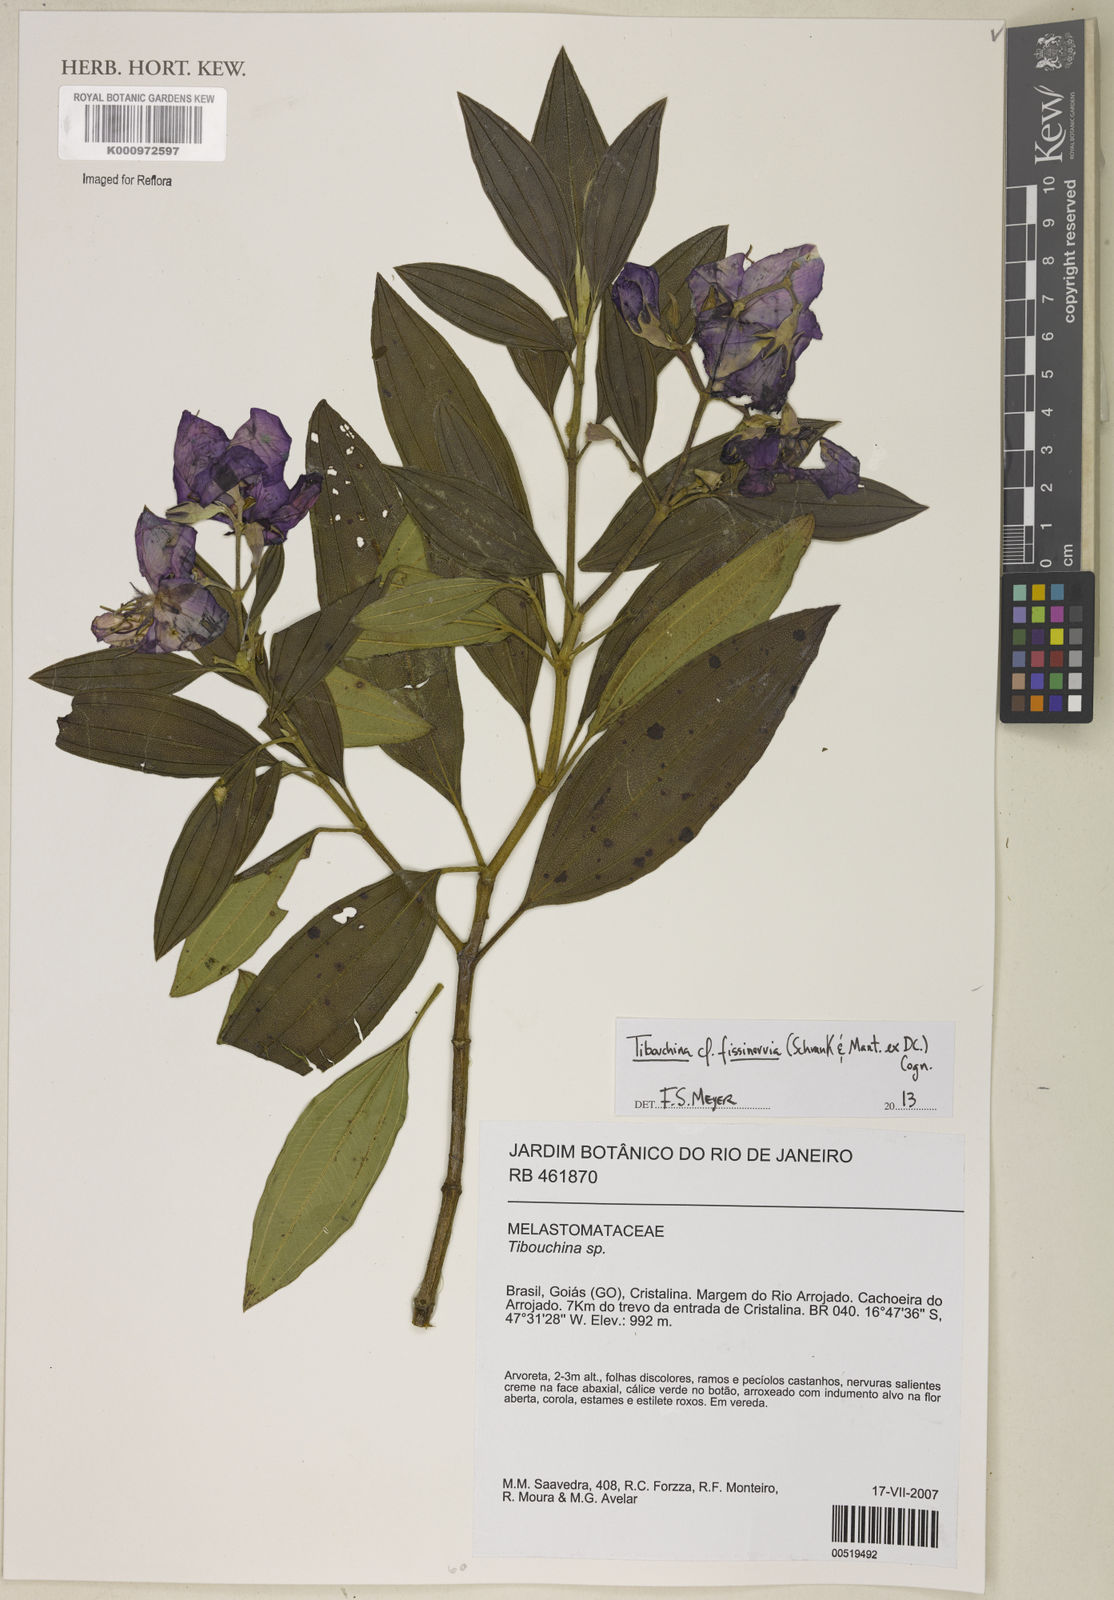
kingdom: Plantae
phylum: Tracheophyta
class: Magnoliopsida
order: Myrtales
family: Melastomataceae
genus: Pleroma
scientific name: Pleroma fissinervium
